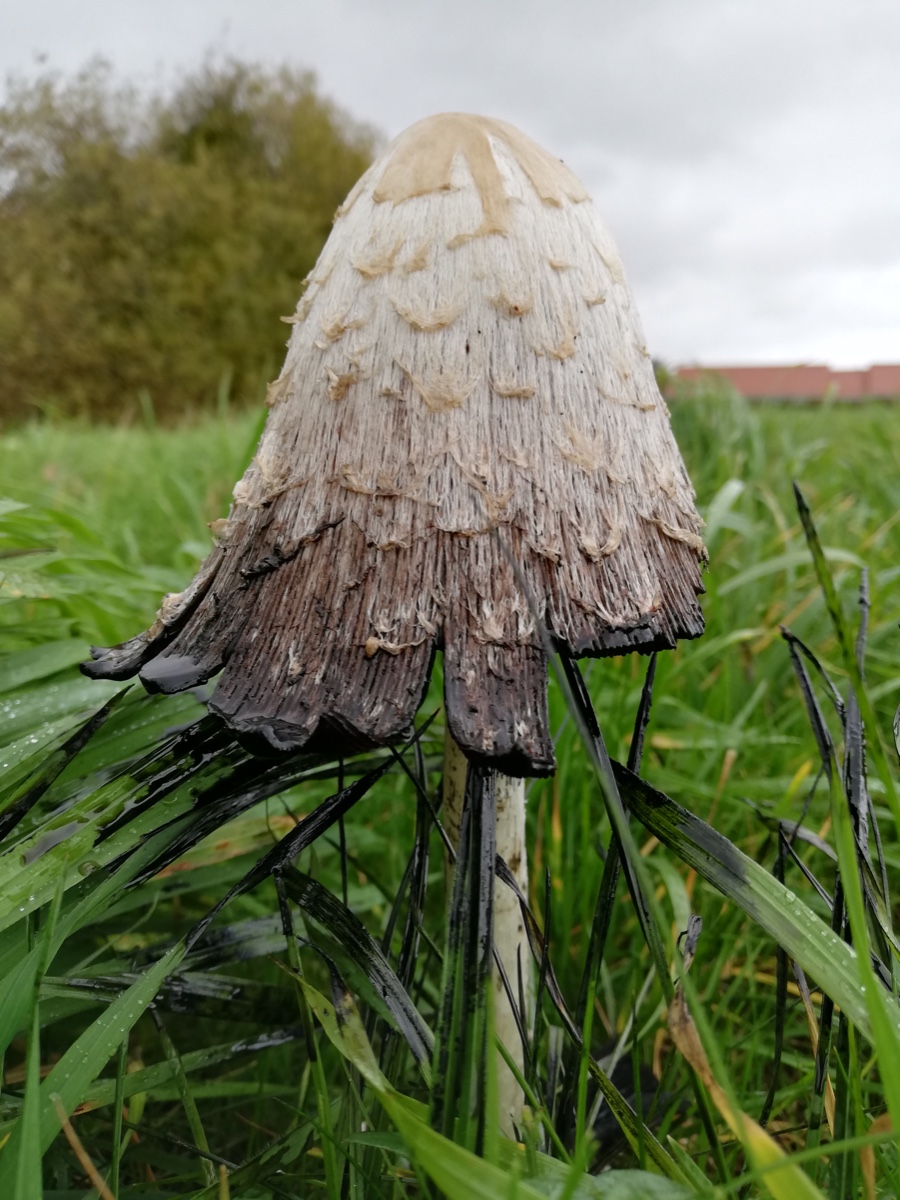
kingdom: Fungi
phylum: Basidiomycota
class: Agaricomycetes
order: Agaricales
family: Agaricaceae
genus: Coprinus
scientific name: Coprinus comatus
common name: stor parykhat
